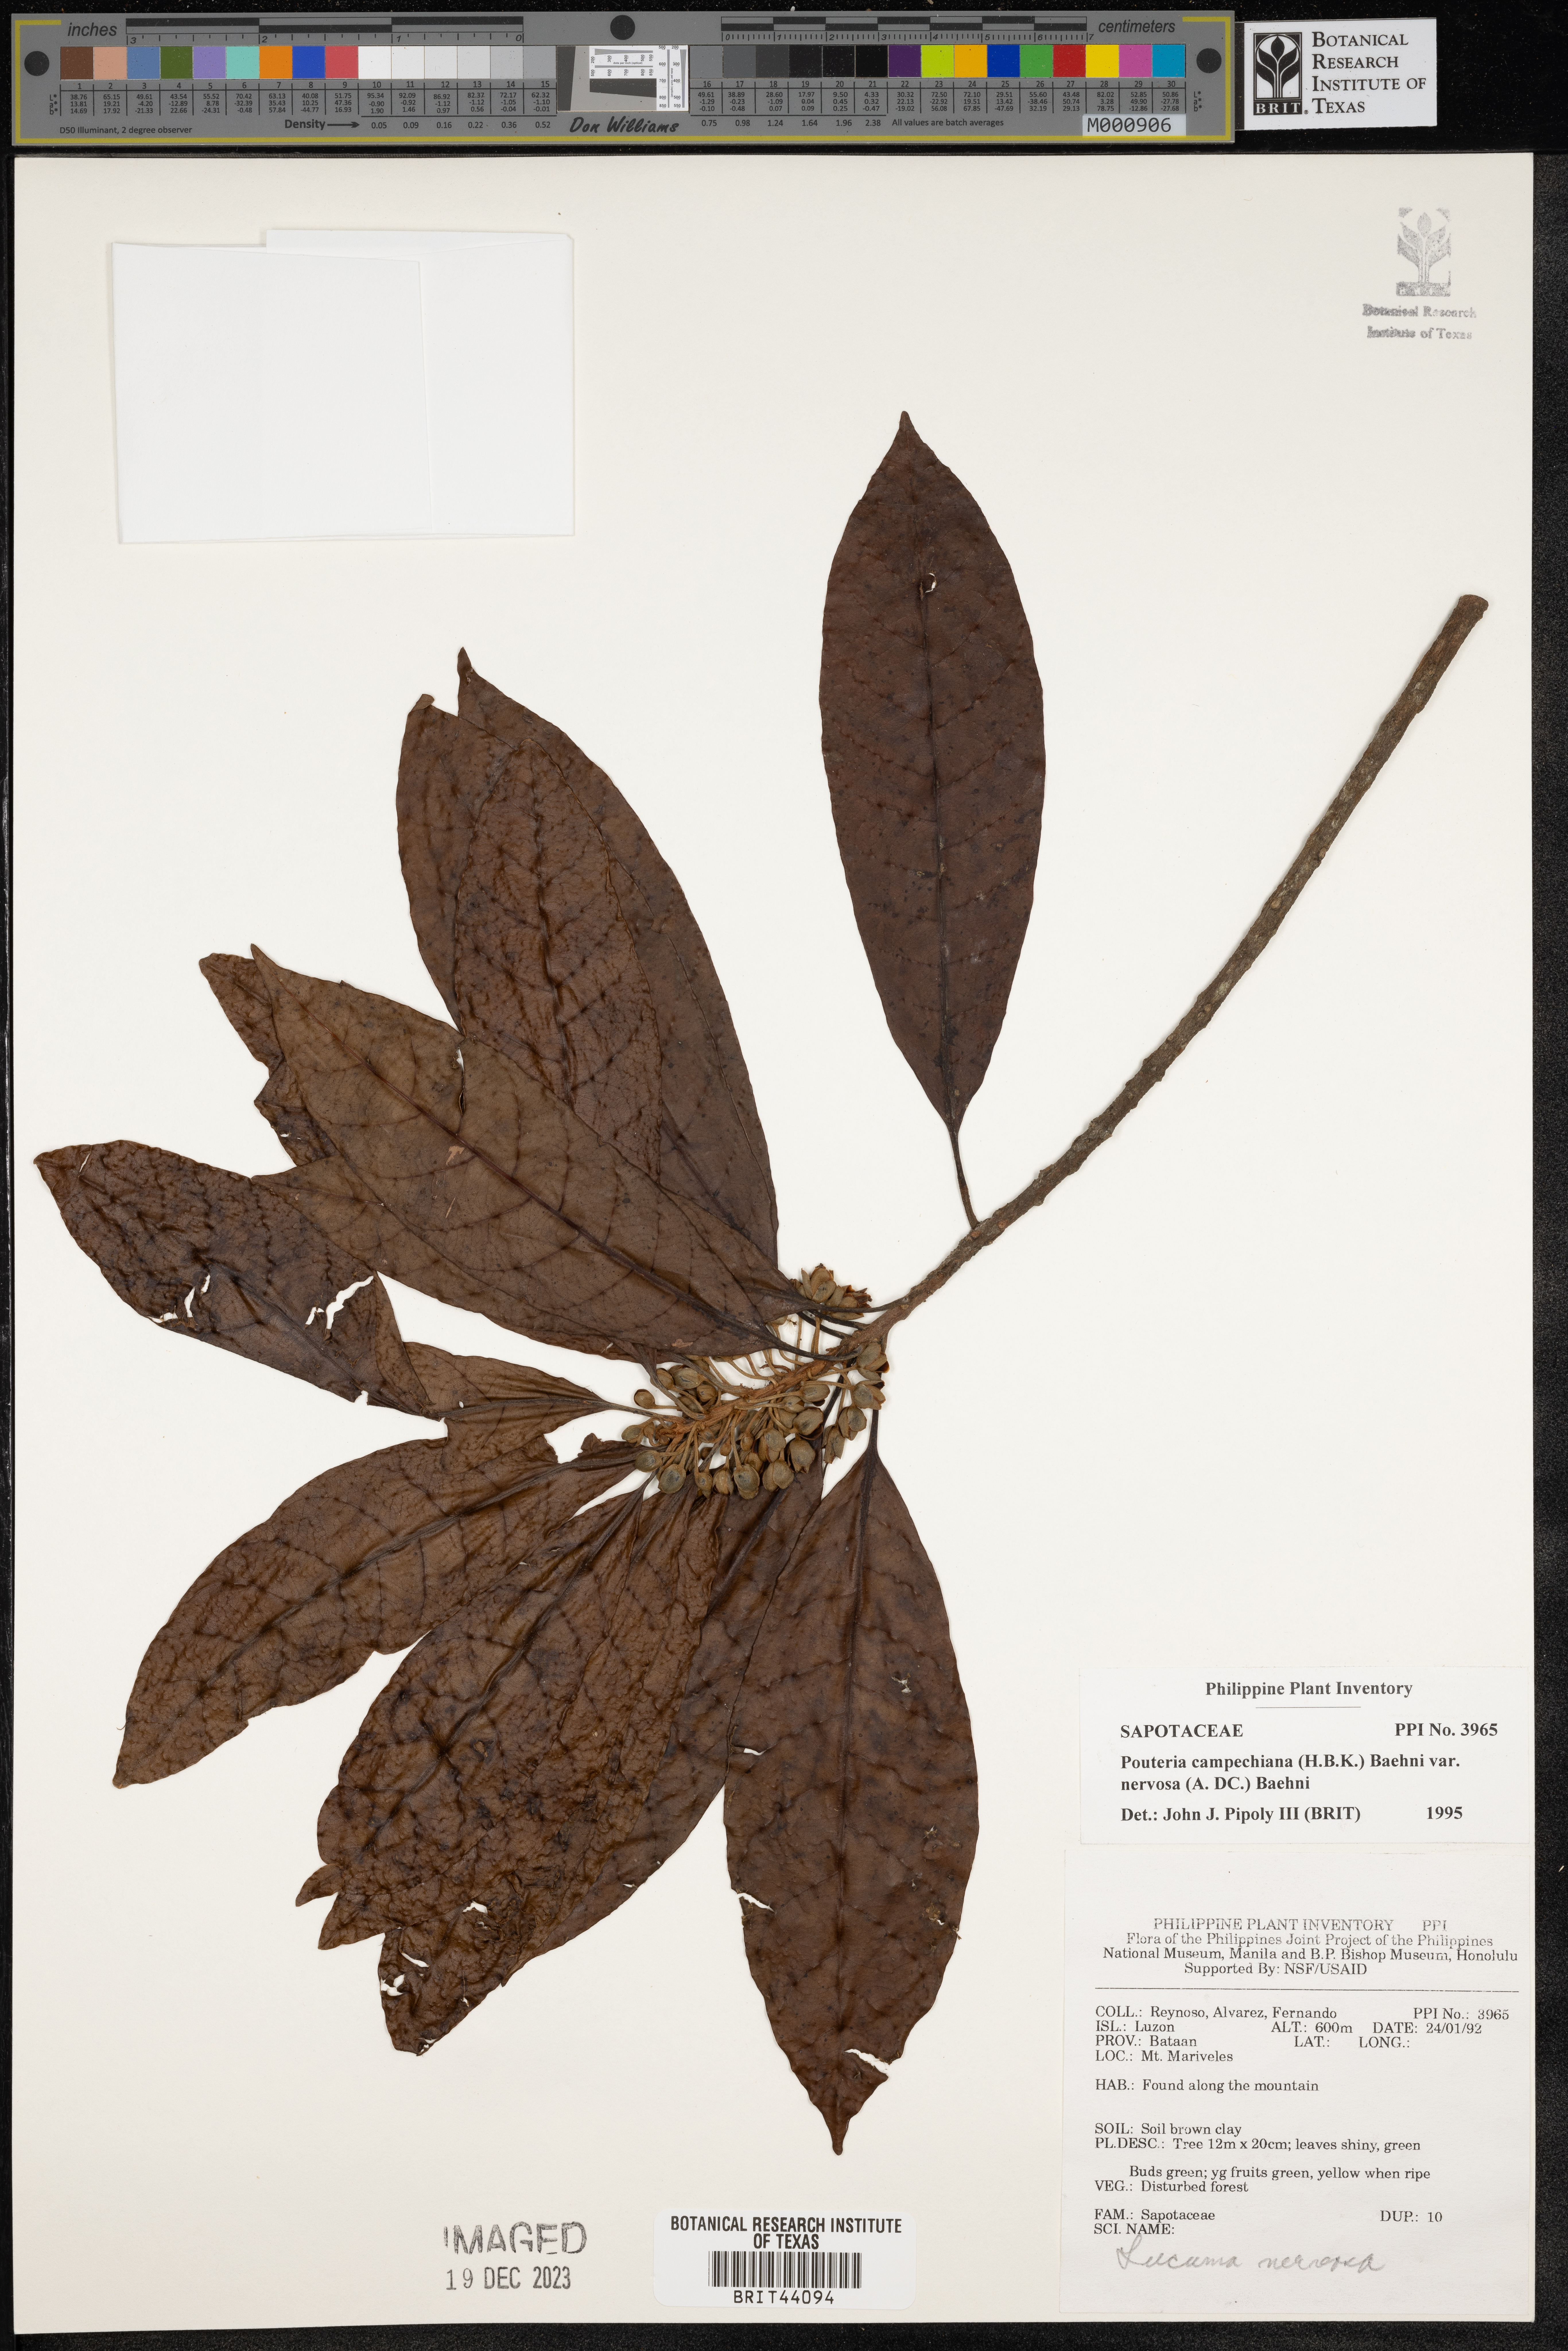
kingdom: Plantae
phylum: Tracheophyta
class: Magnoliopsida
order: Ericales
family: Sapotaceae
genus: Pouteria
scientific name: Pouteria campechiana
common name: Canistel
